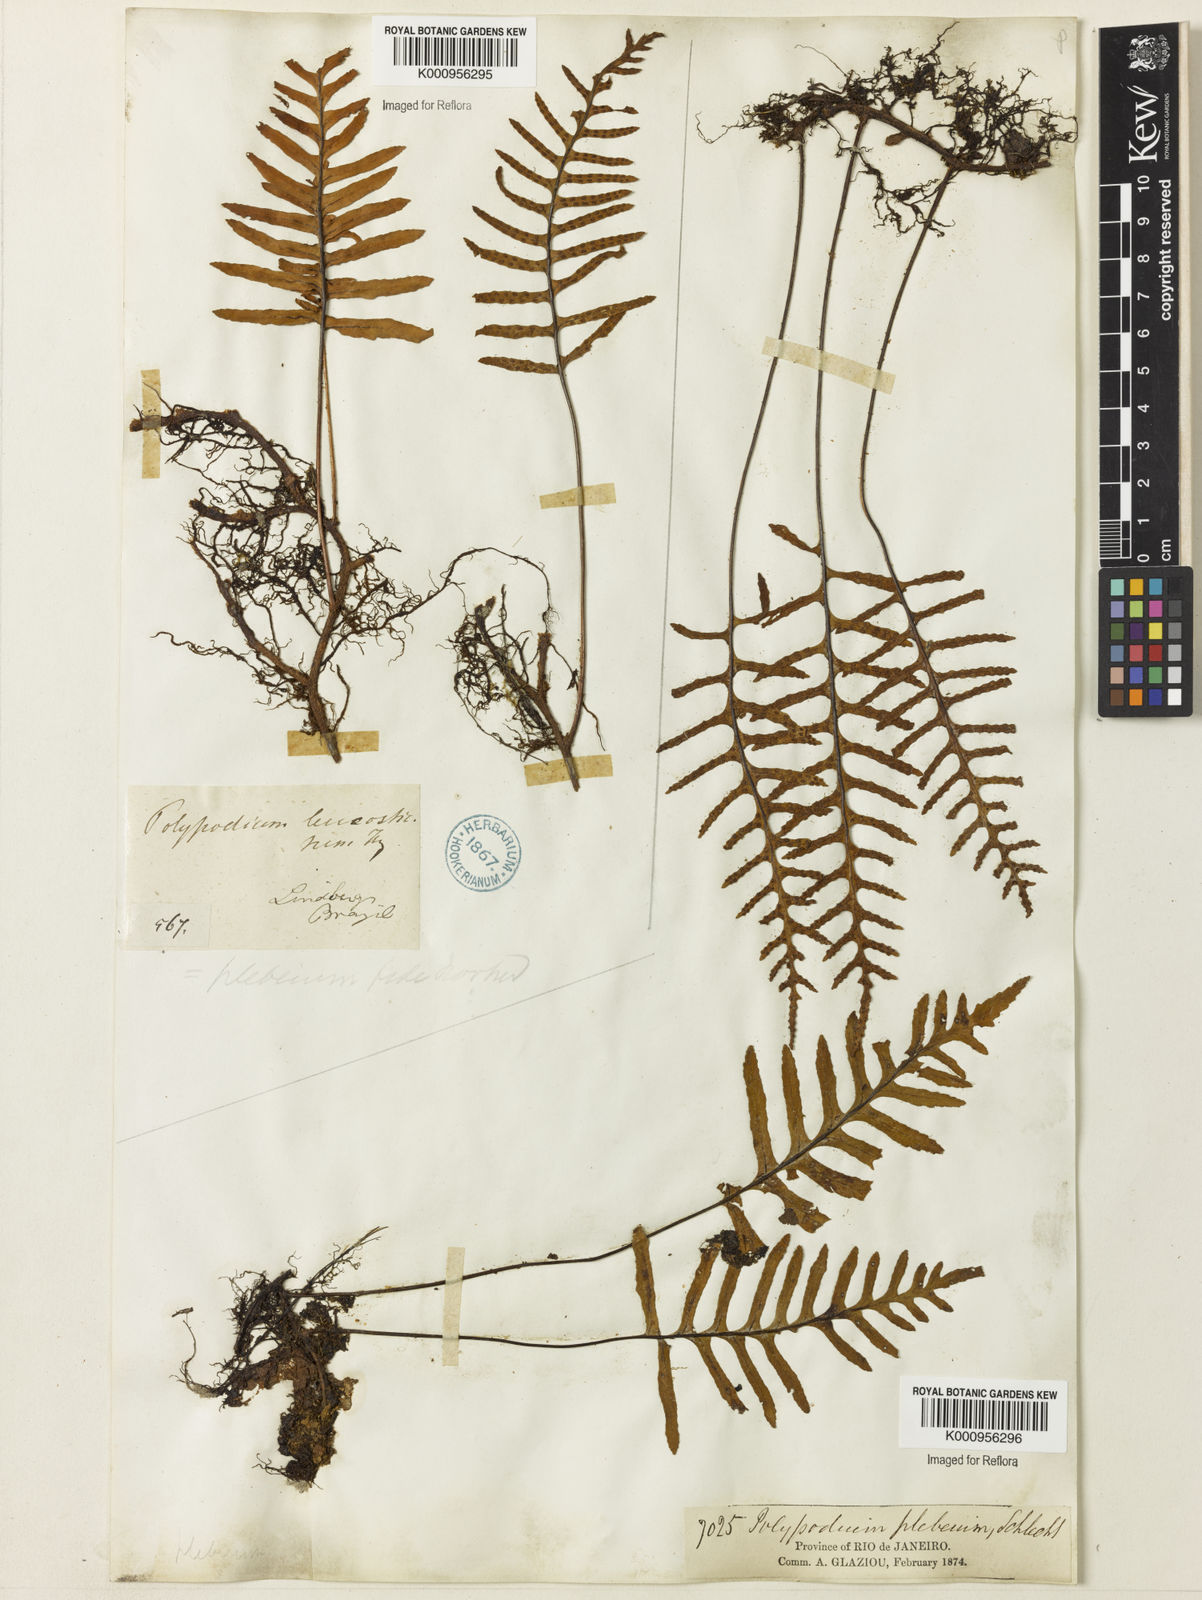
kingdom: Plantae
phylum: Tracheophyta
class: Polypodiopsida
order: Polypodiales
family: Polypodiaceae
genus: Polypodium
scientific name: Polypodium
